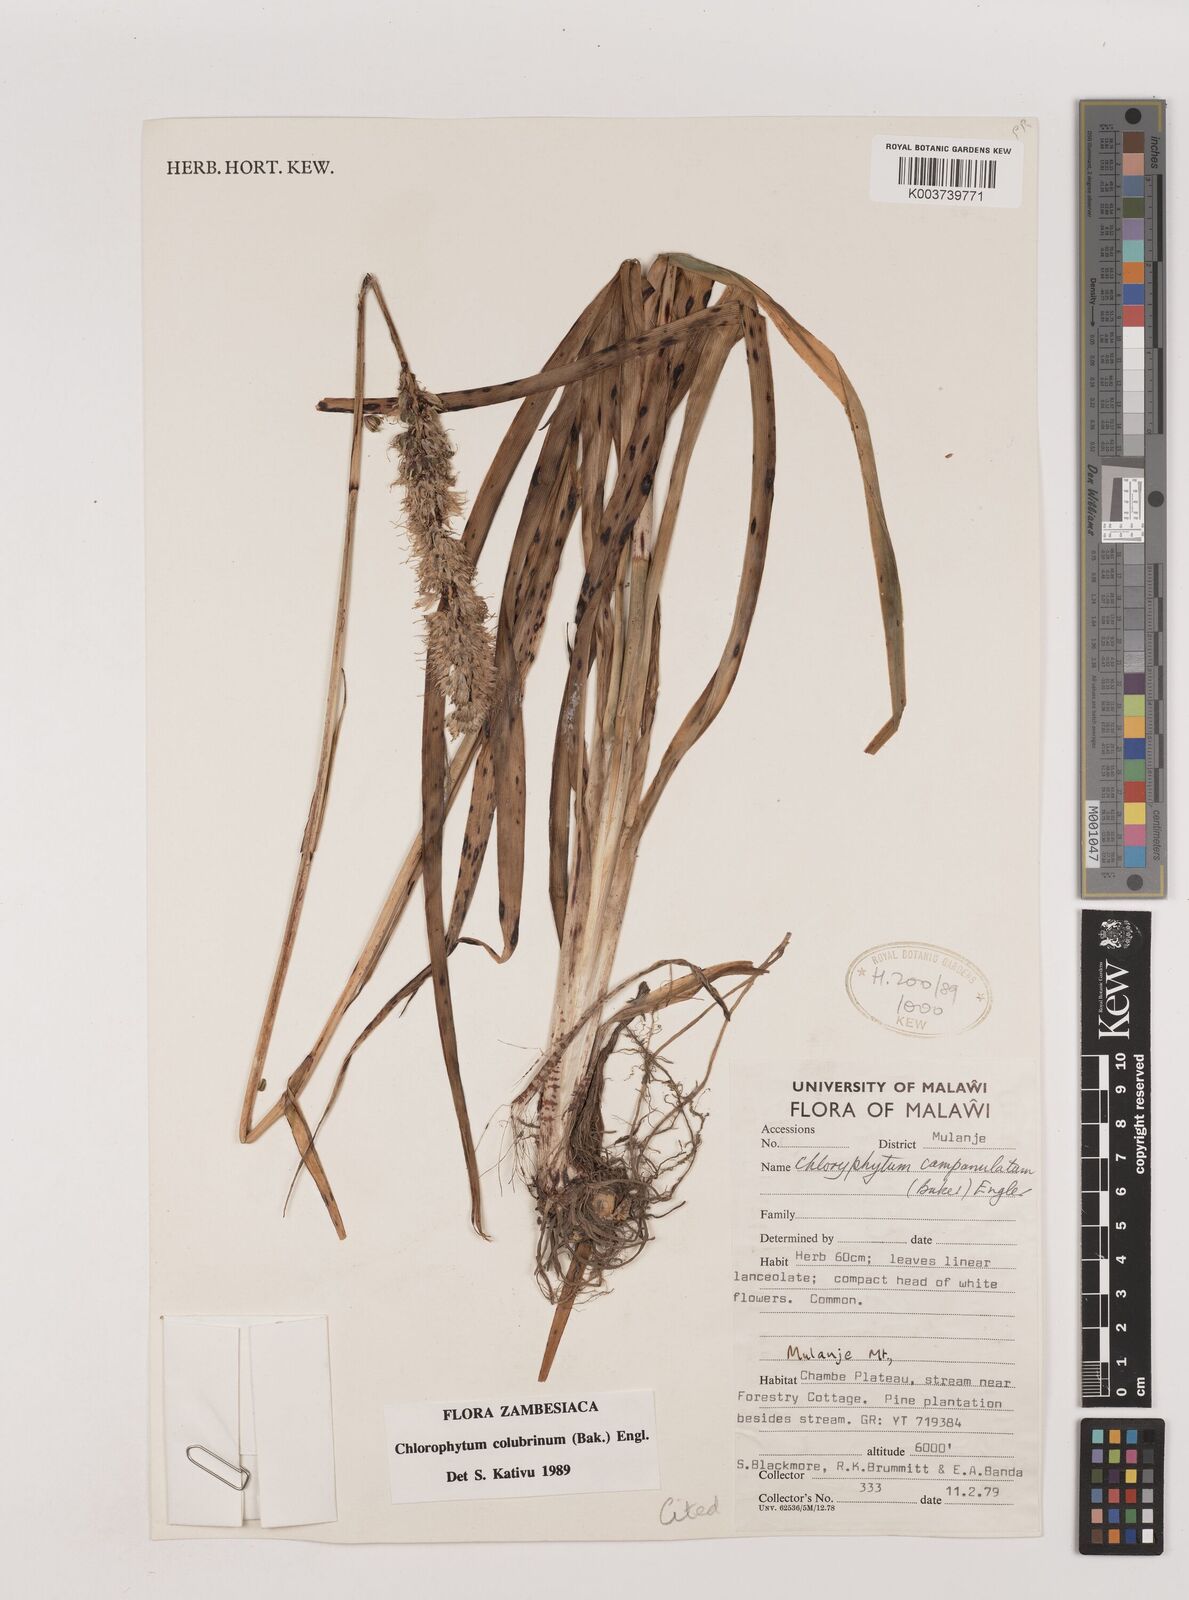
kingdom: Plantae
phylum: Tracheophyta
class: Liliopsida
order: Asparagales
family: Asparagaceae
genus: Chlorophytum
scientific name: Chlorophytum colubrinum
